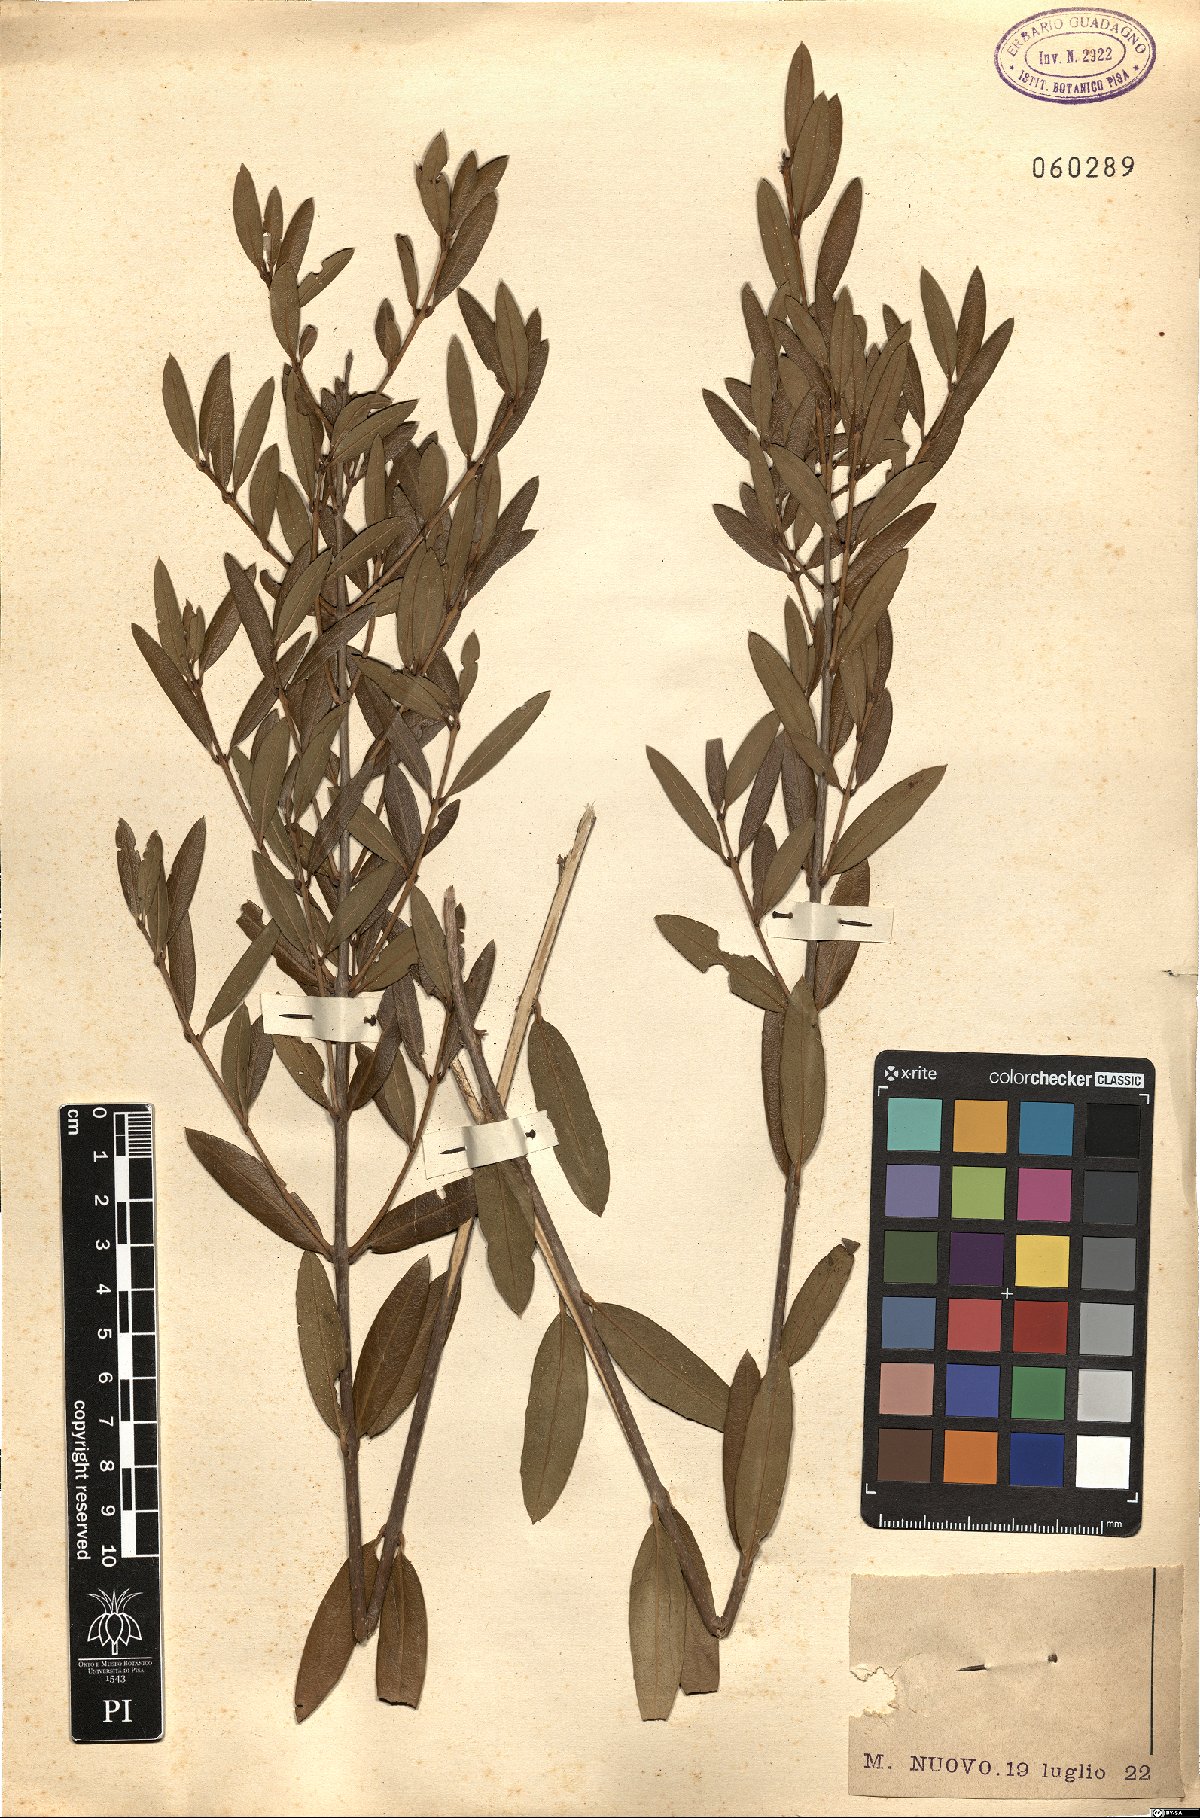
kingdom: Plantae
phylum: Tracheophyta
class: Magnoliopsida
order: Lamiales
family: Oleaceae
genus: Phillyrea
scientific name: Phillyrea angustifolia
